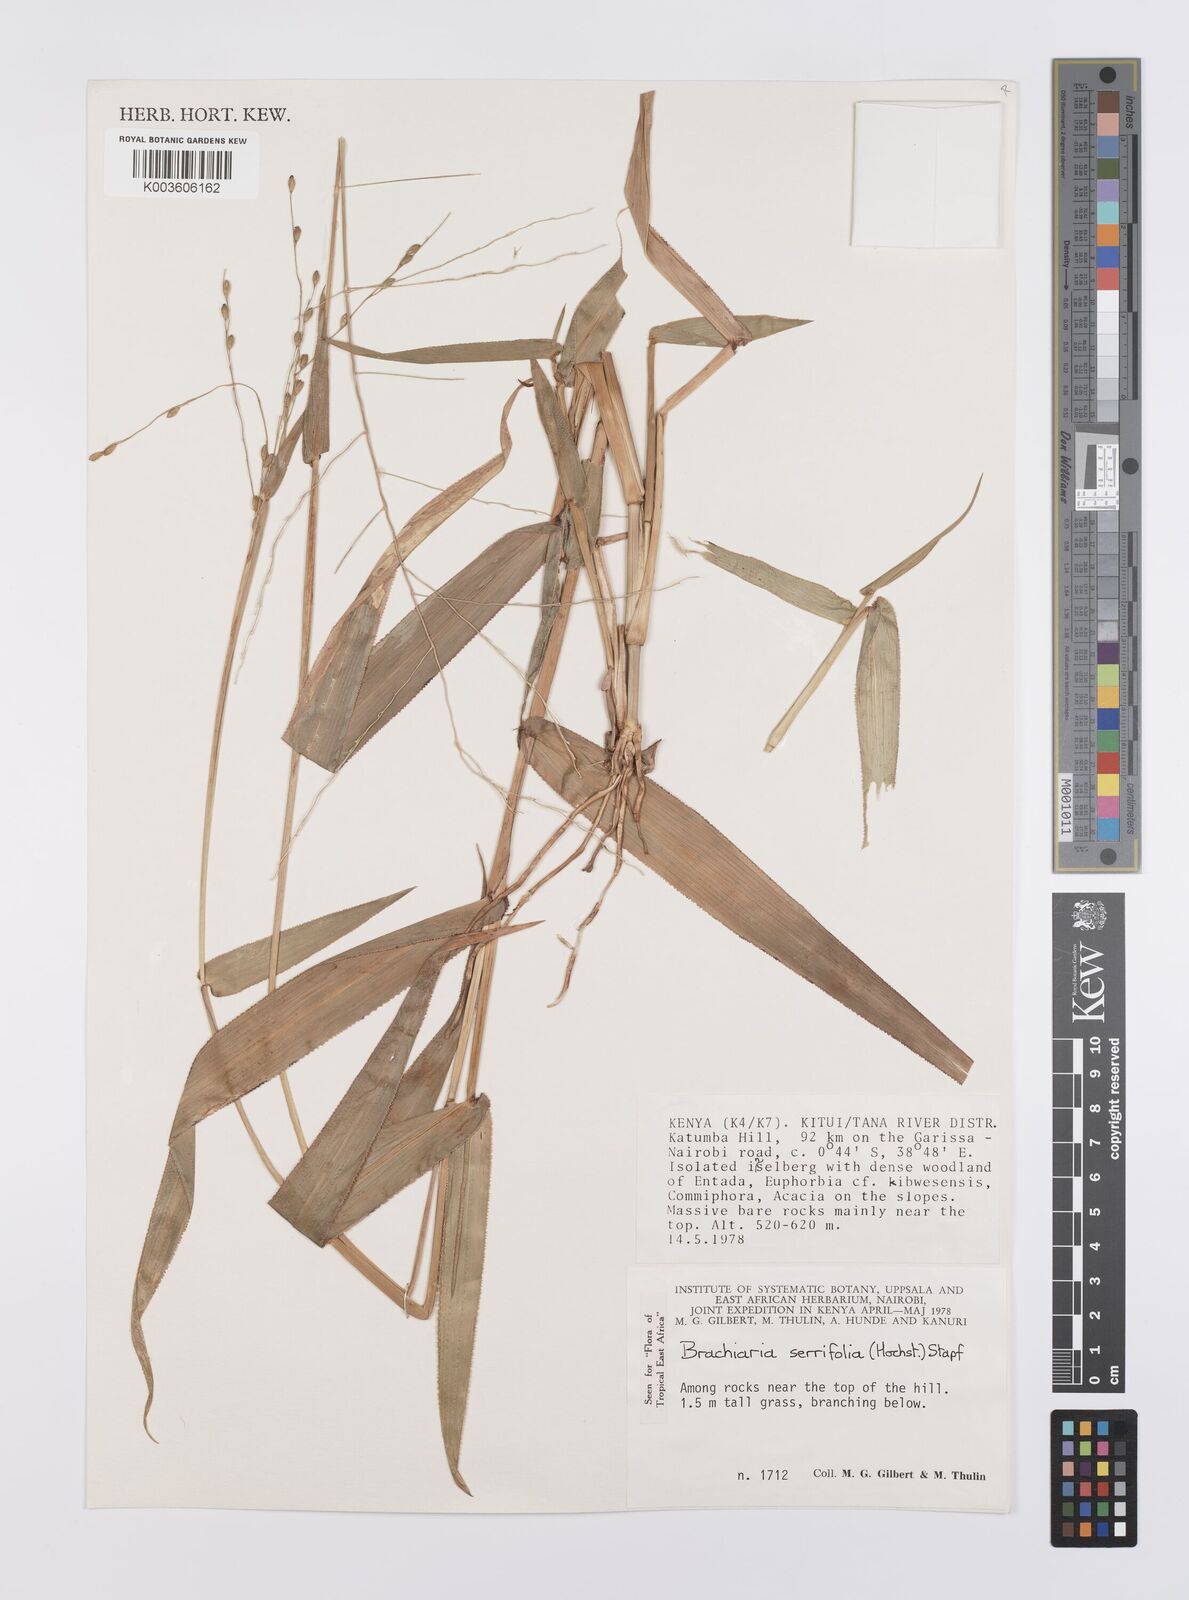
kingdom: Plantae
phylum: Tracheophyta
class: Liliopsida
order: Poales
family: Poaceae
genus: Urochloa
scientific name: Urochloa serrifolia
